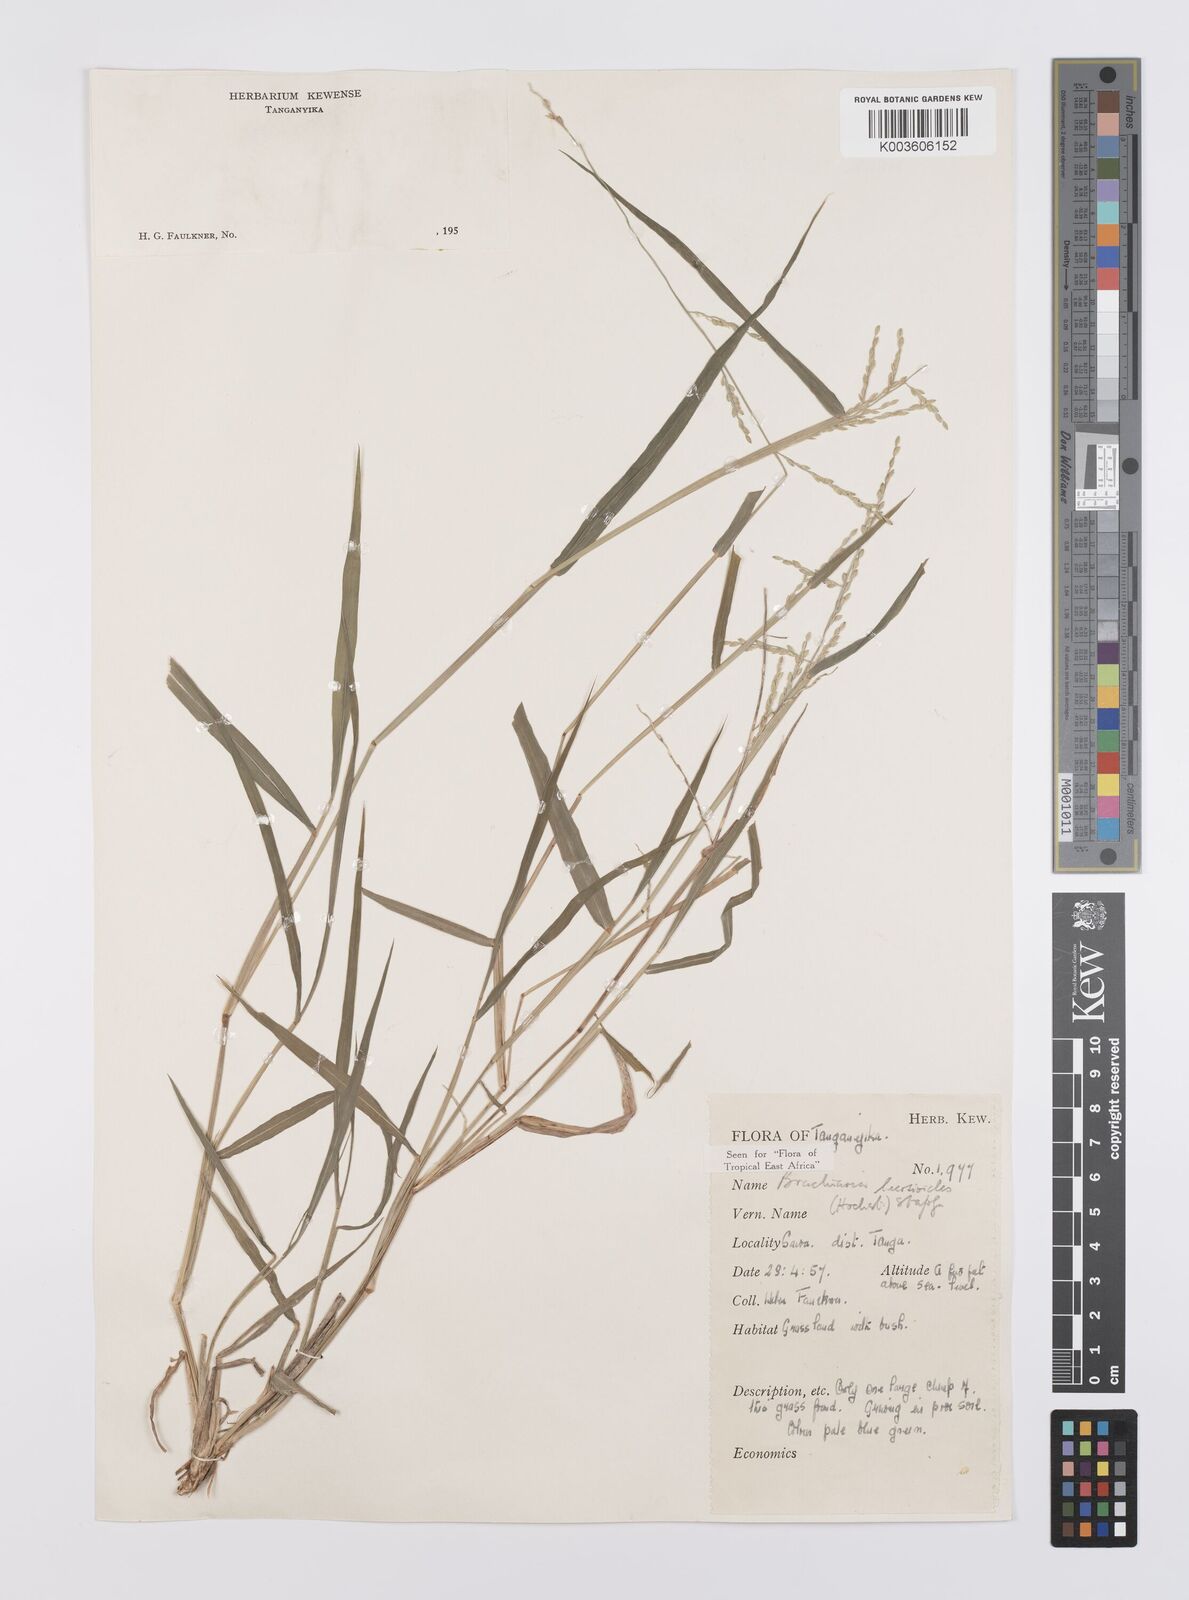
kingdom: Plantae
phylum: Tracheophyta
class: Liliopsida
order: Poales
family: Poaceae
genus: Urochloa
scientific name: Urochloa leersioides
